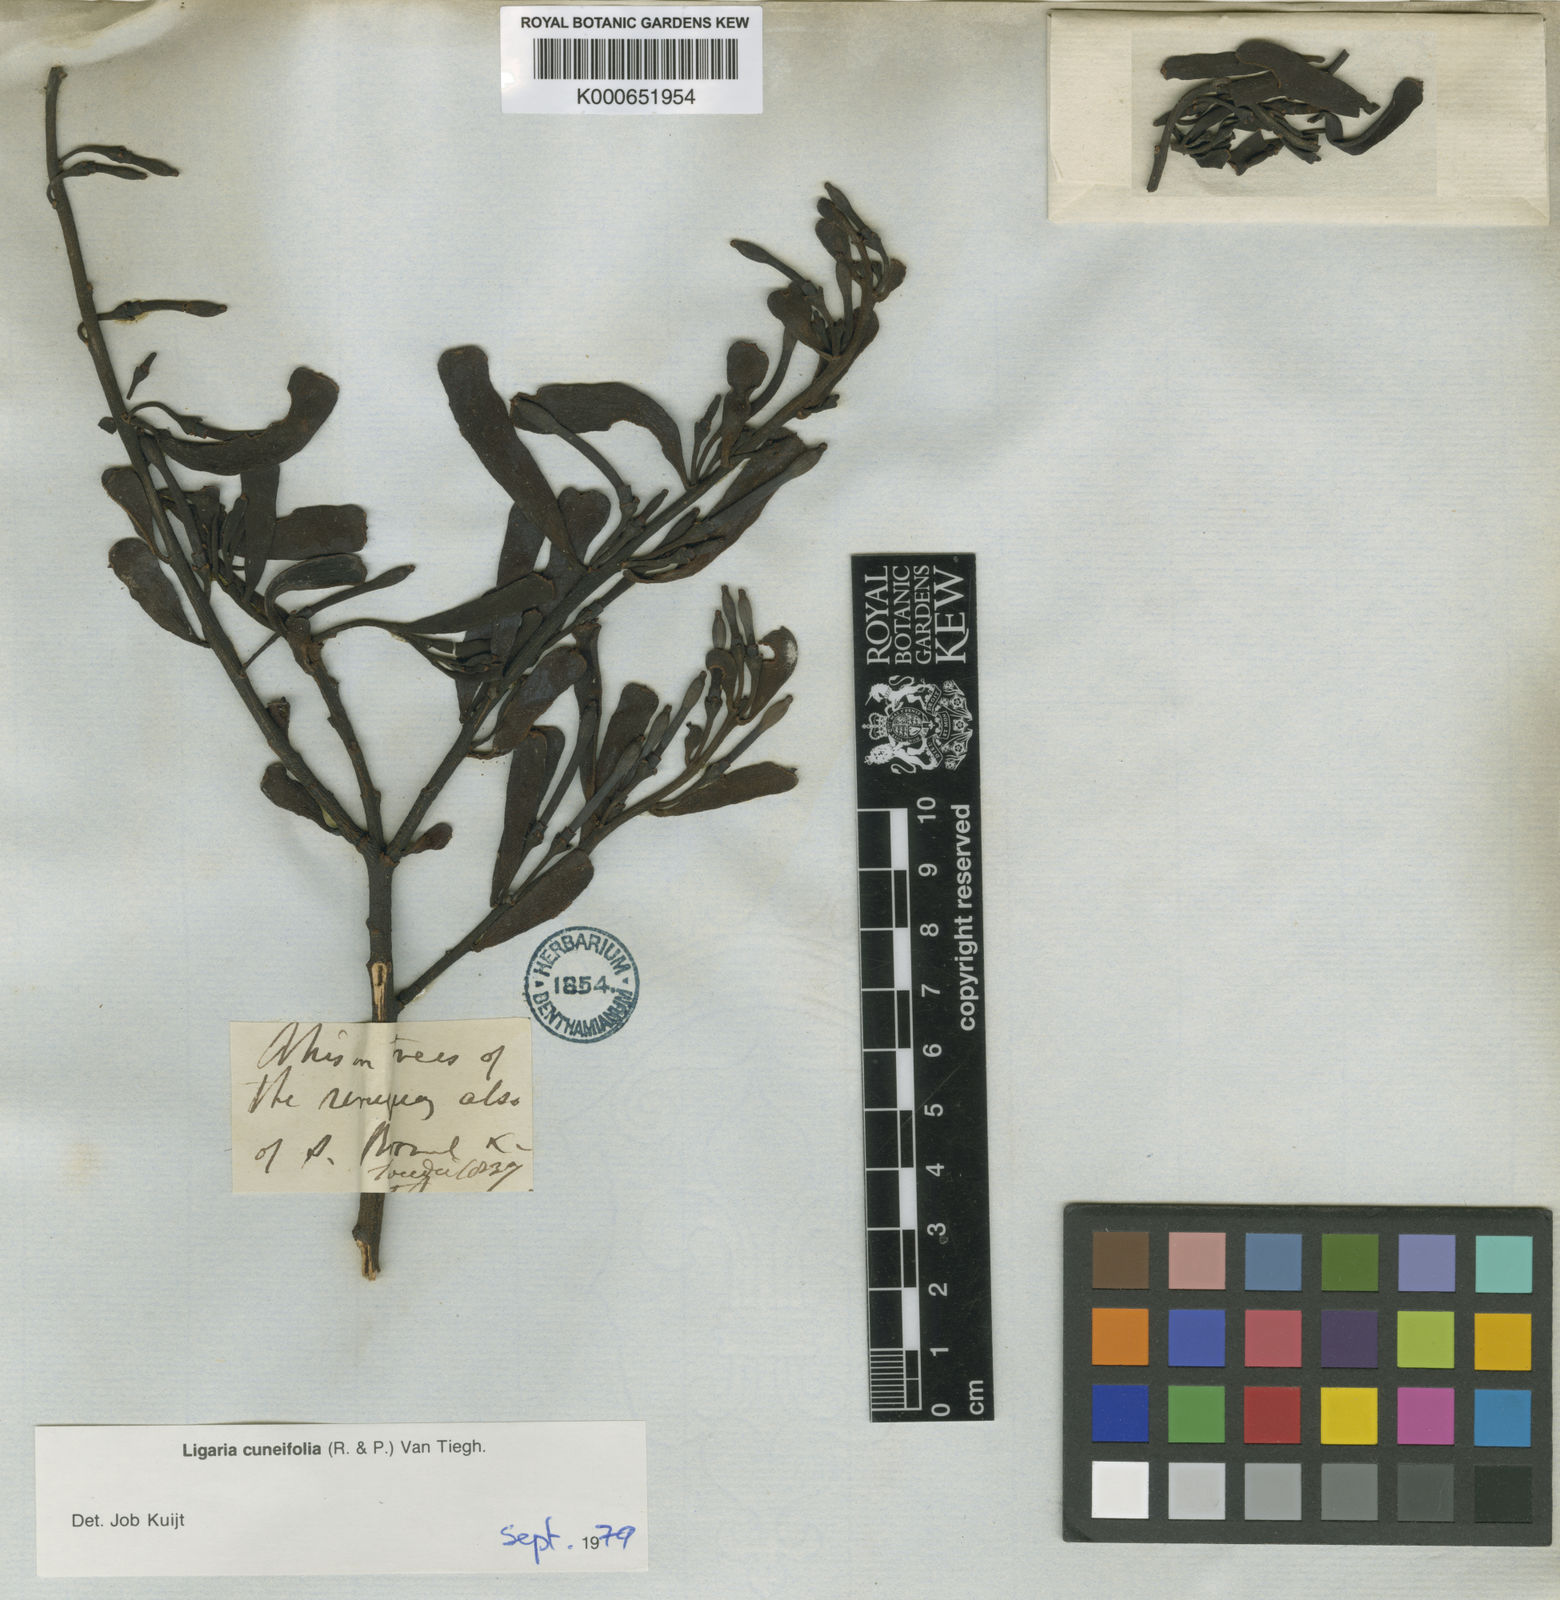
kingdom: Plantae
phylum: Tracheophyta
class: Magnoliopsida
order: Santalales
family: Loranthaceae
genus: Ligaria
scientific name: Ligaria cuneifolia
